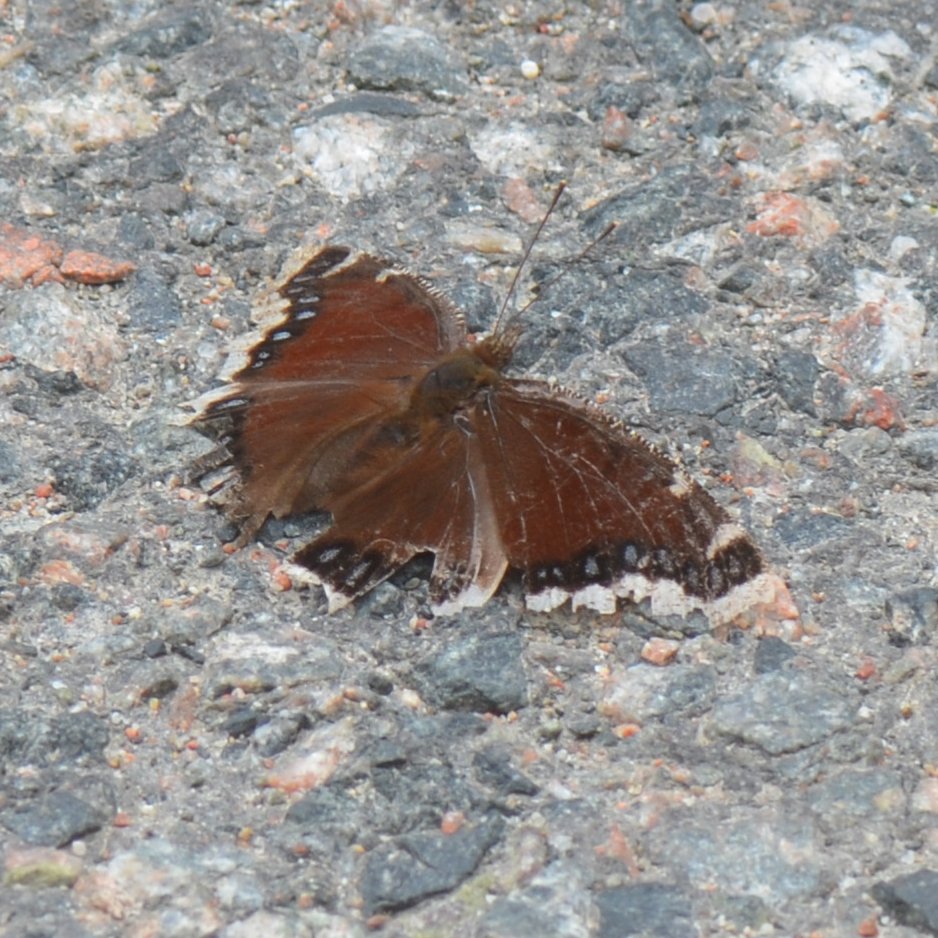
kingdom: Animalia
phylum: Arthropoda
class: Insecta
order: Lepidoptera
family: Nymphalidae
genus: Nymphalis
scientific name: Nymphalis antiopa
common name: Mourning Cloak
